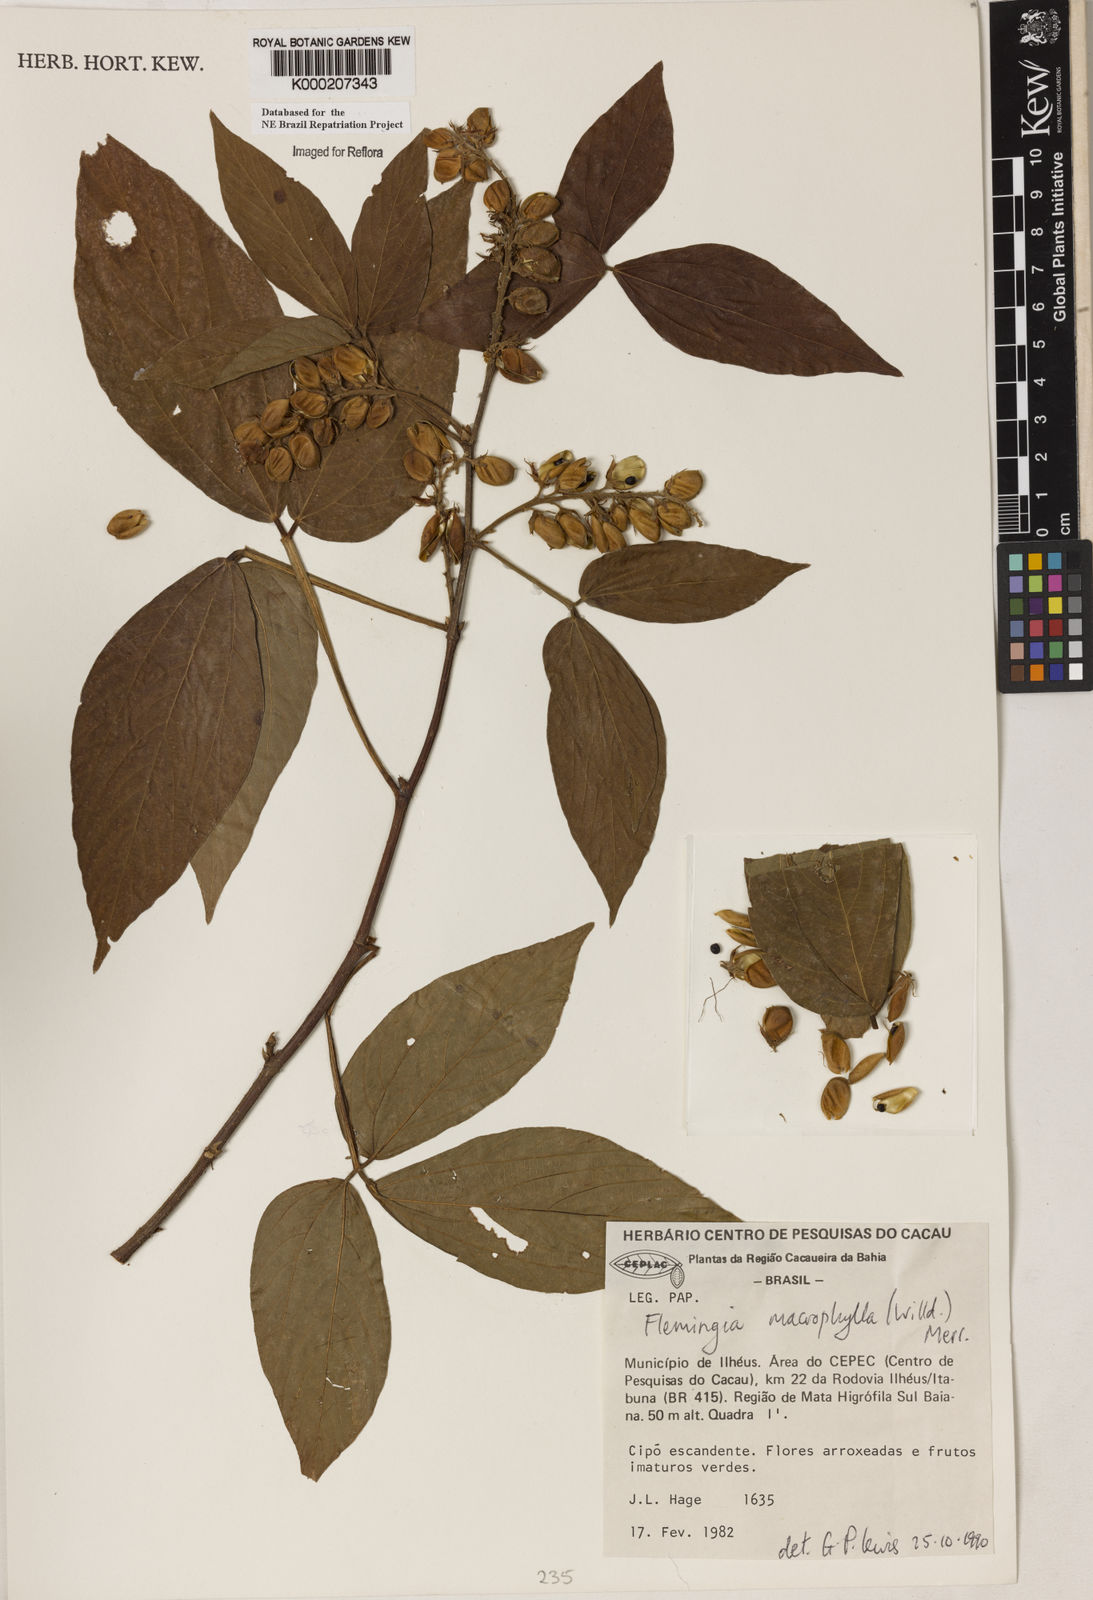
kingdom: Plantae
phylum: Tracheophyta
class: Magnoliopsida
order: Asterales
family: Asteraceae
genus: Mikania
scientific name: Mikania trinervis
